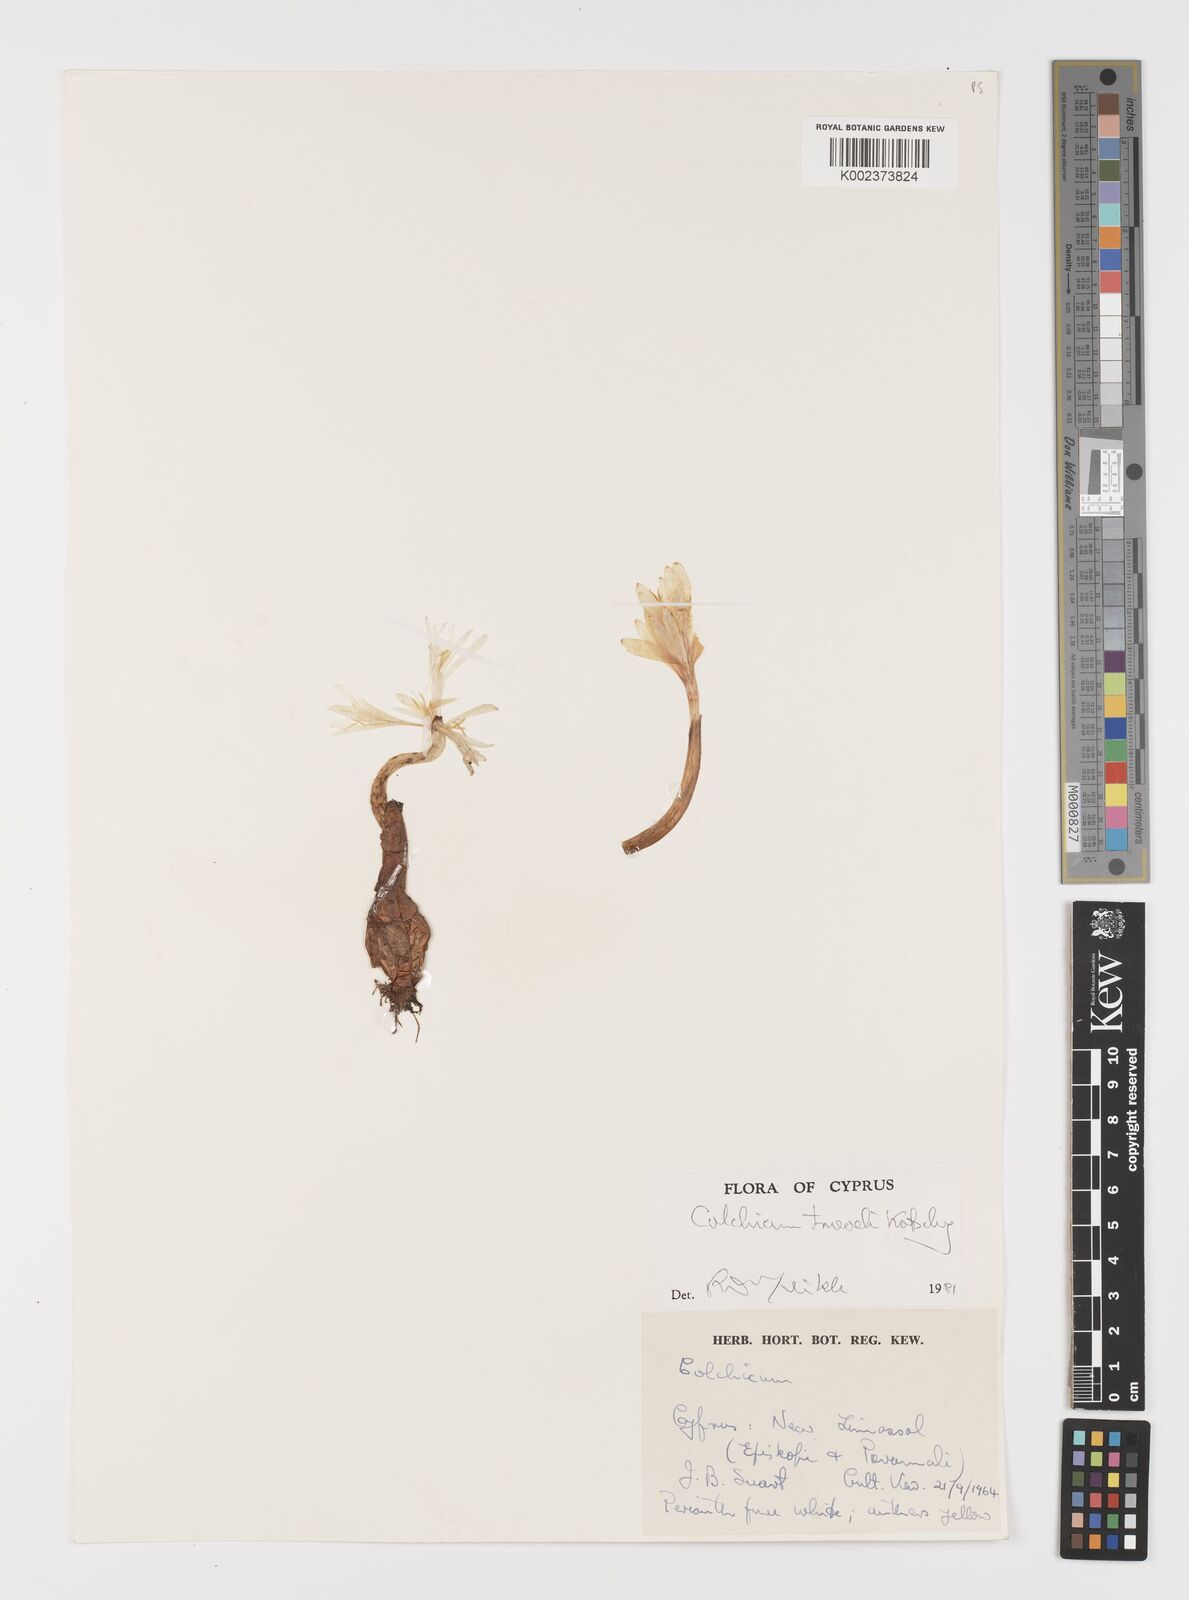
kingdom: Plantae
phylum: Tracheophyta
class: Liliopsida
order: Liliales
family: Colchicaceae
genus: Colchicum
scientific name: Colchicum troodi
